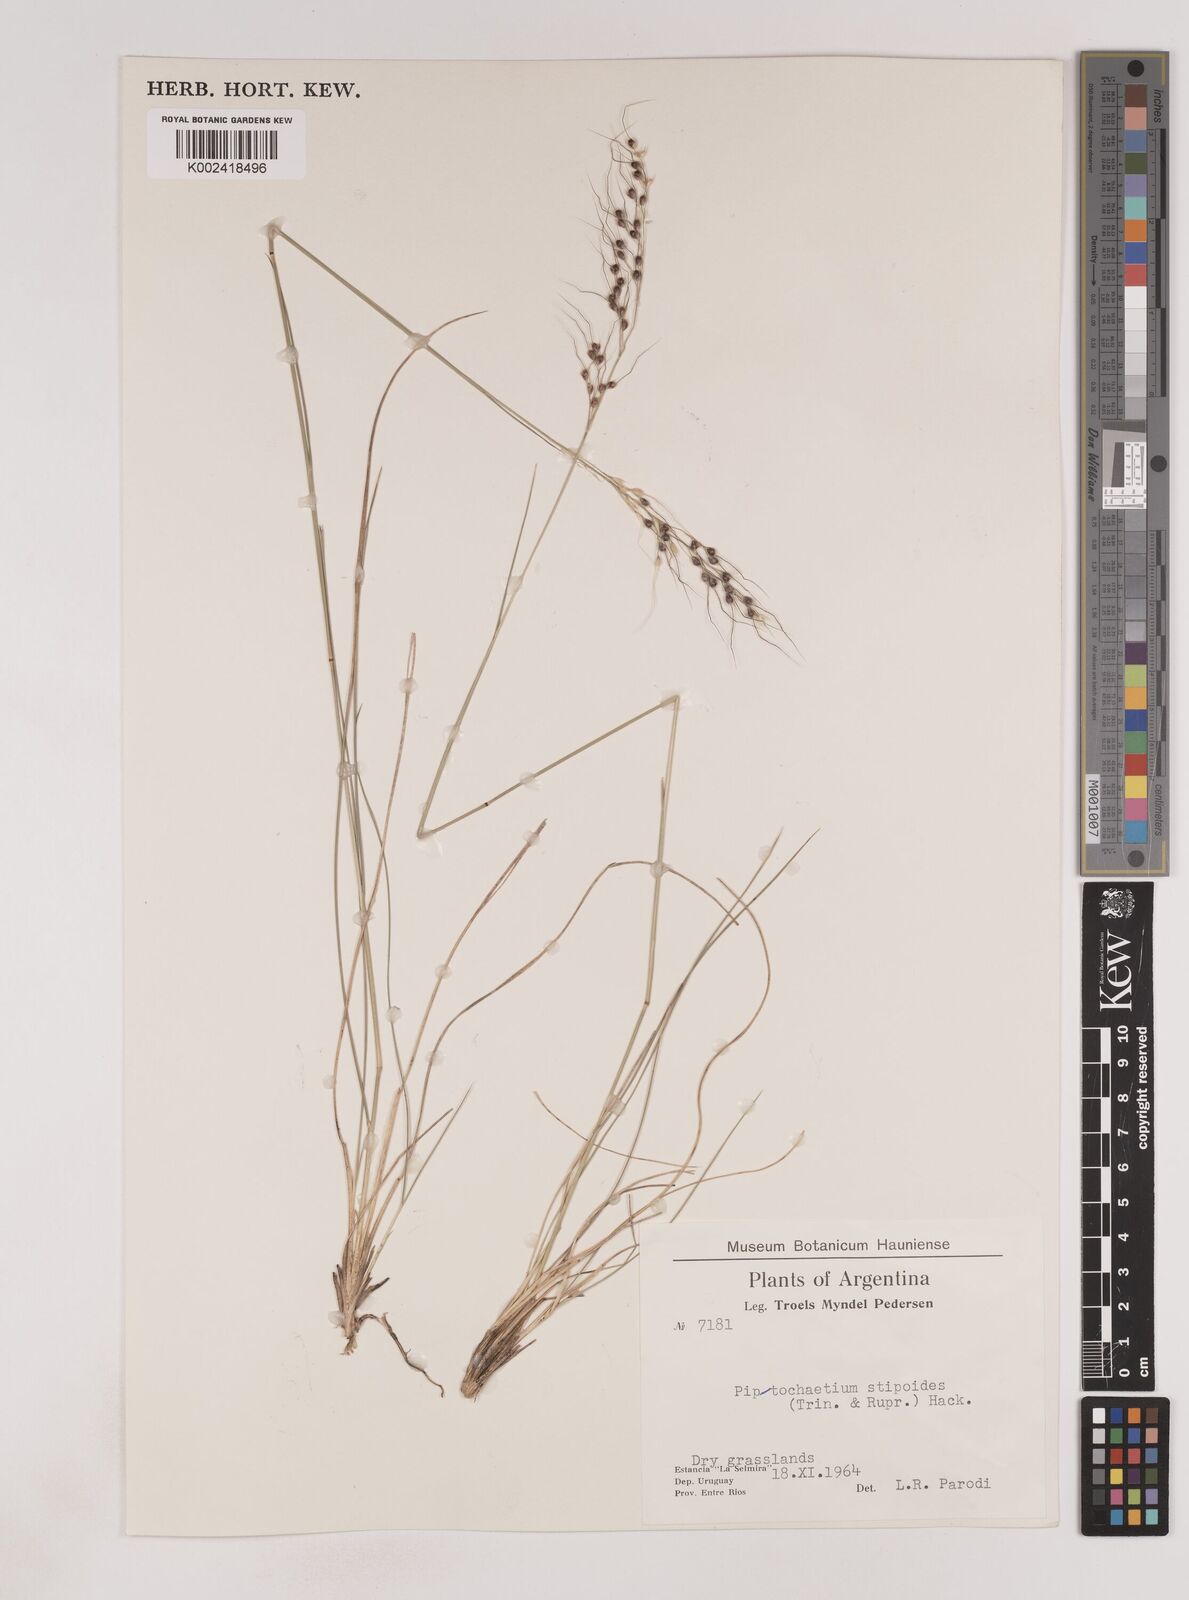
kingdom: Plantae
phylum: Tracheophyta
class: Liliopsida
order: Poales
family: Poaceae
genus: Piptochaetium
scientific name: Piptochaetium stipoides
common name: Purple speargrass
